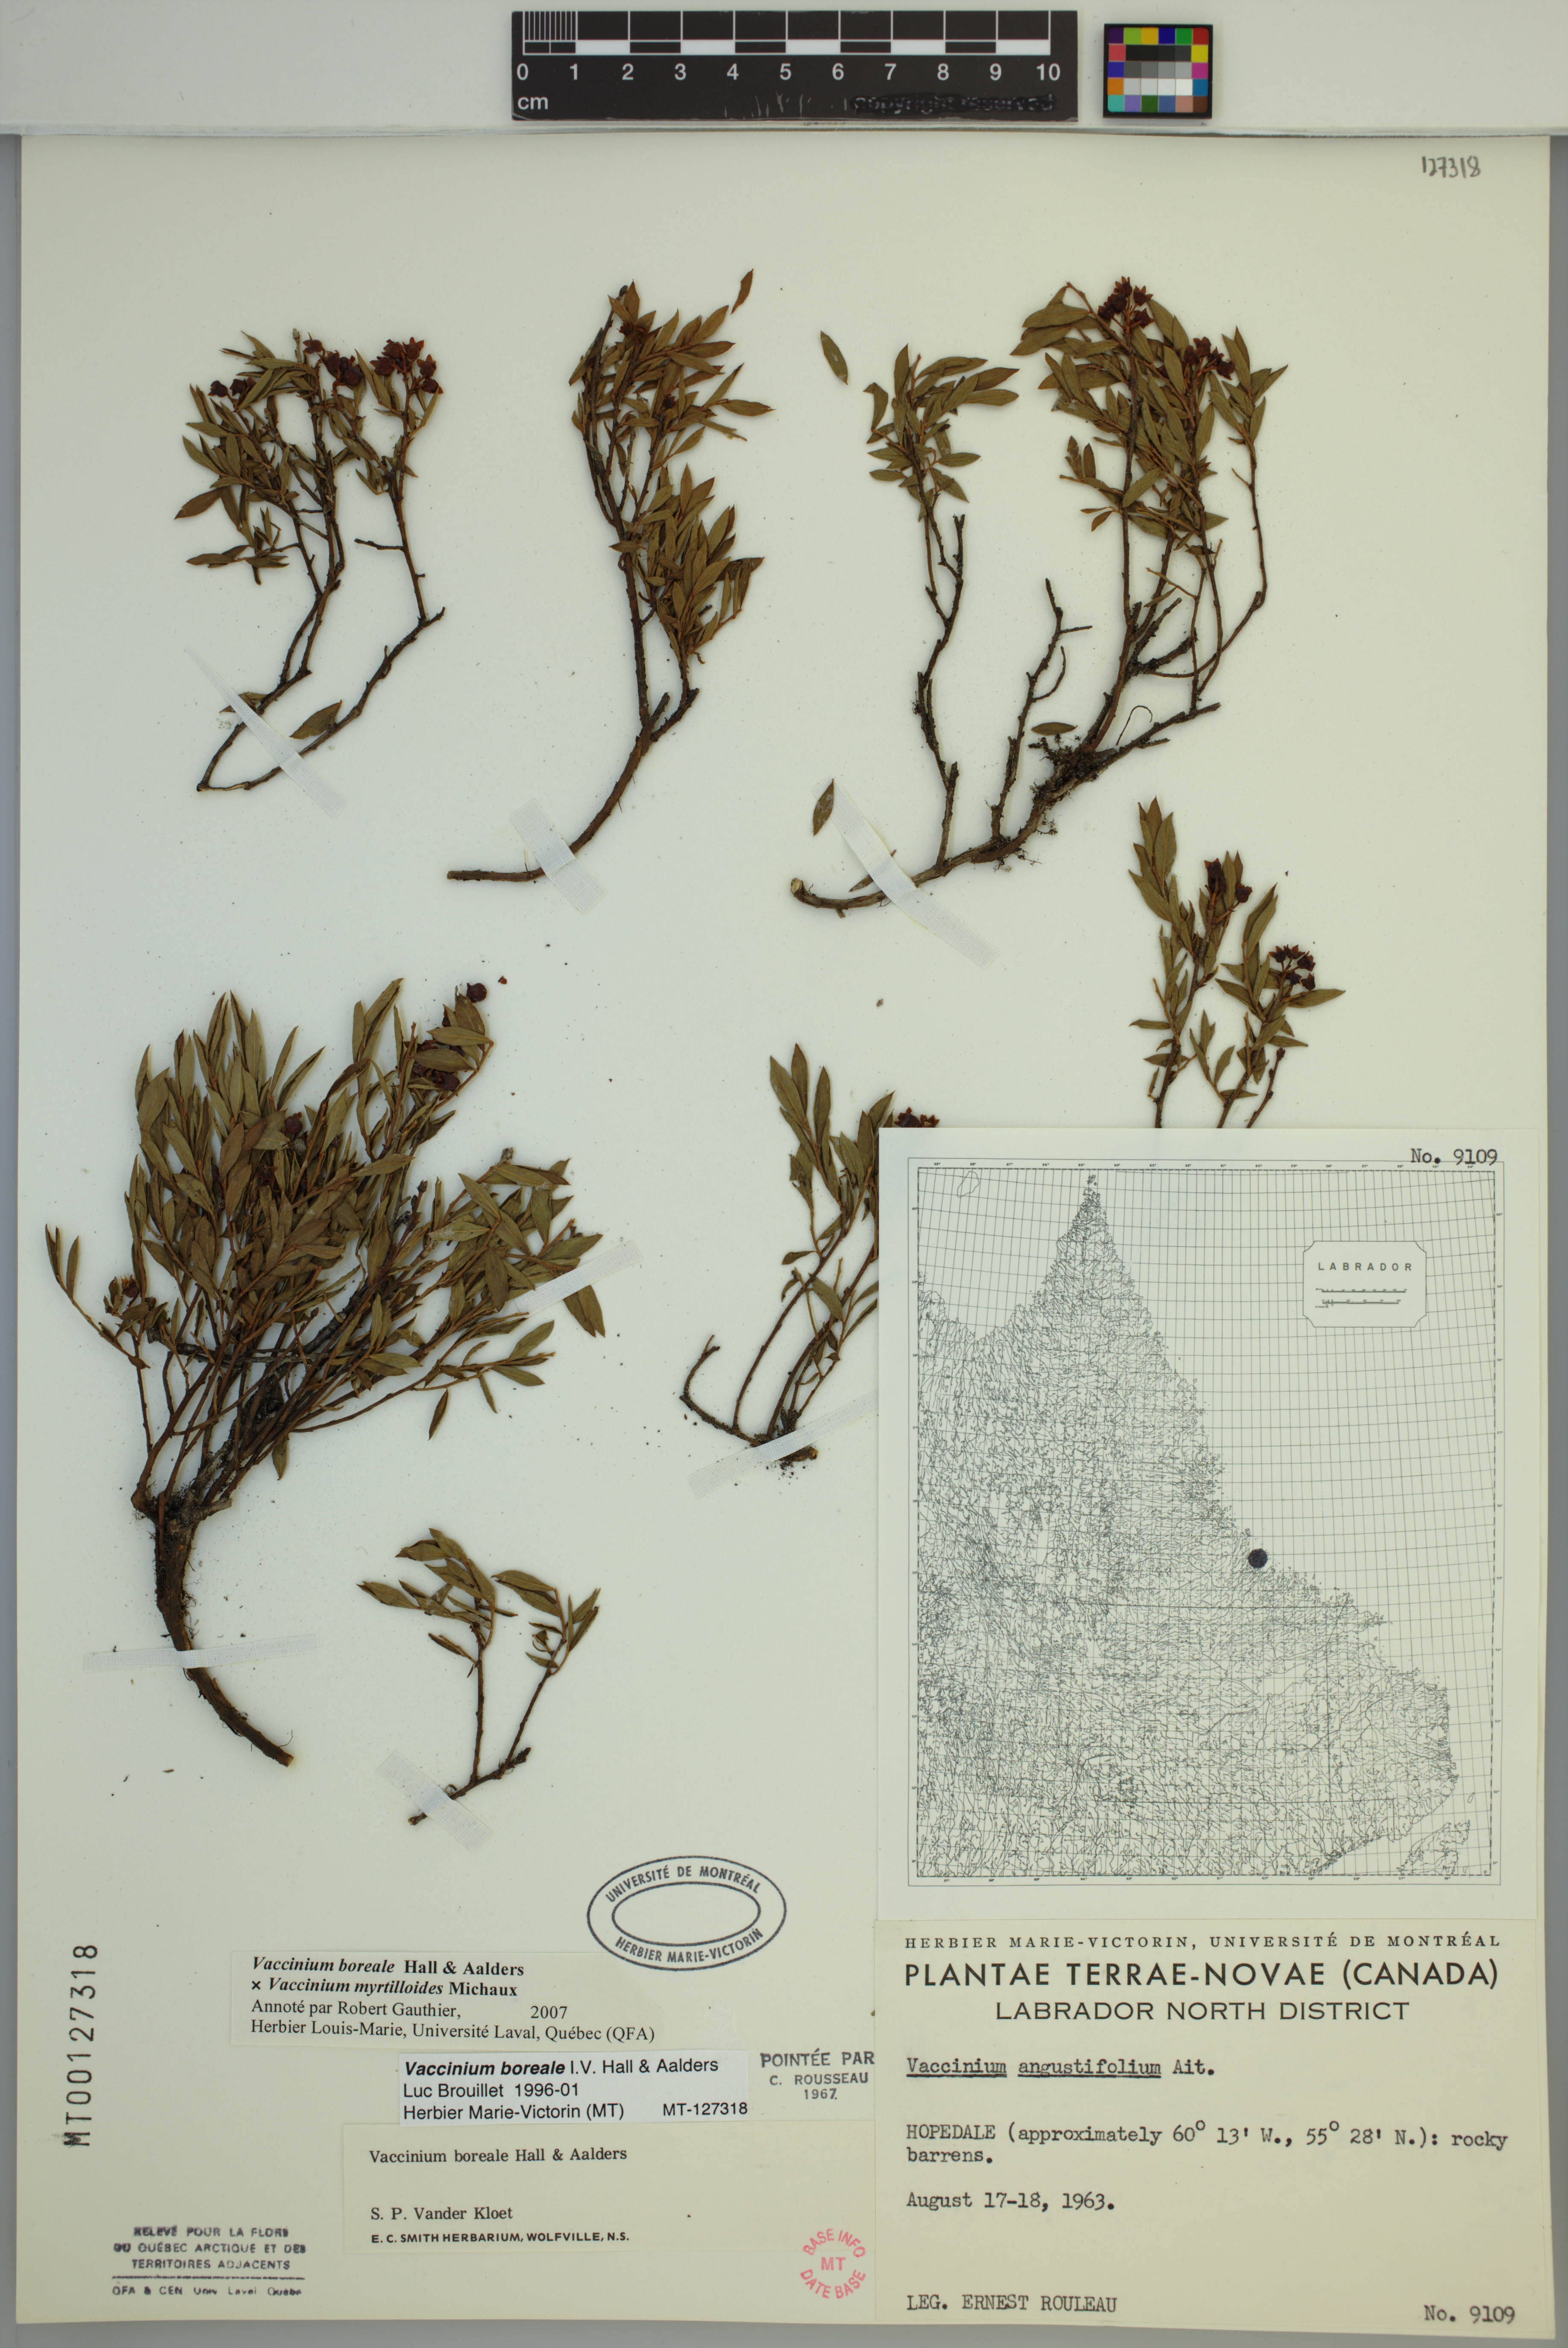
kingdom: Plantae
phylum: Tracheophyta
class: Magnoliopsida
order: Ericales
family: Ericaceae
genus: Vaccinium
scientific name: Vaccinium boreale
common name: Northern blueberry
